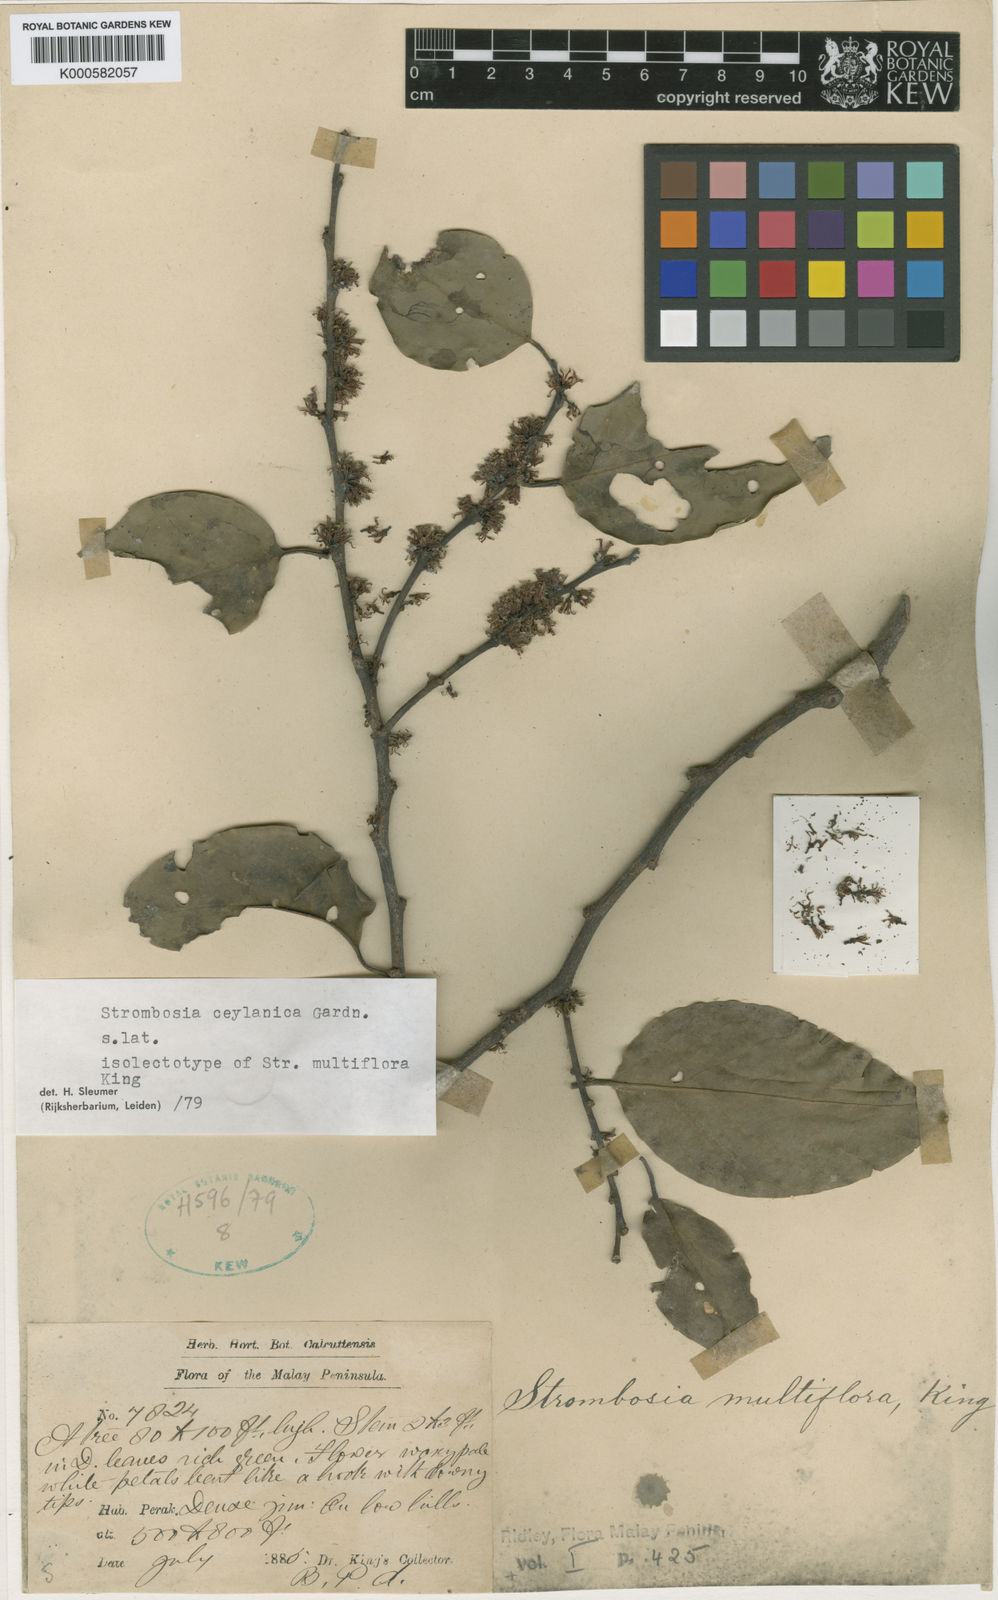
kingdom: Plantae
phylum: Tracheophyta
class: Magnoliopsida
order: Santalales
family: Strombosiaceae
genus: Strombosia
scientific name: Strombosia ceylanica
